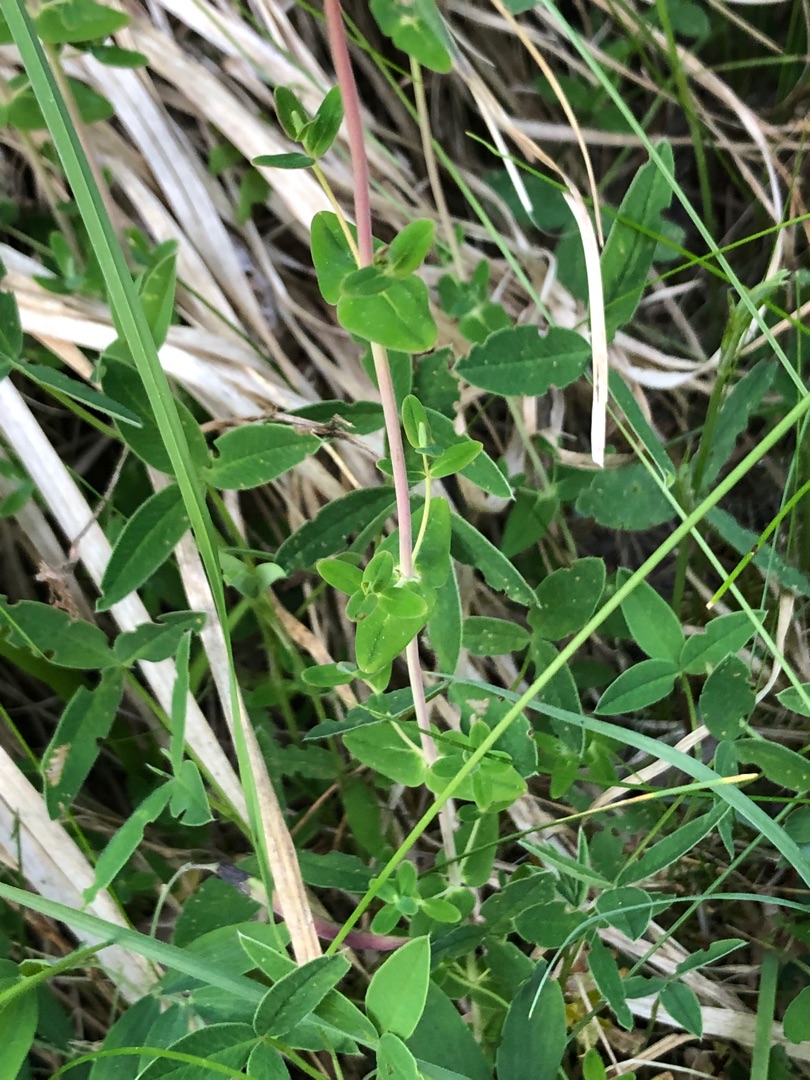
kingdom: Plantae
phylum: Tracheophyta
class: Magnoliopsida
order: Malpighiales
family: Hypericaceae
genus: Hypericum
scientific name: Hypericum pulchrum
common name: Smuk perikon
